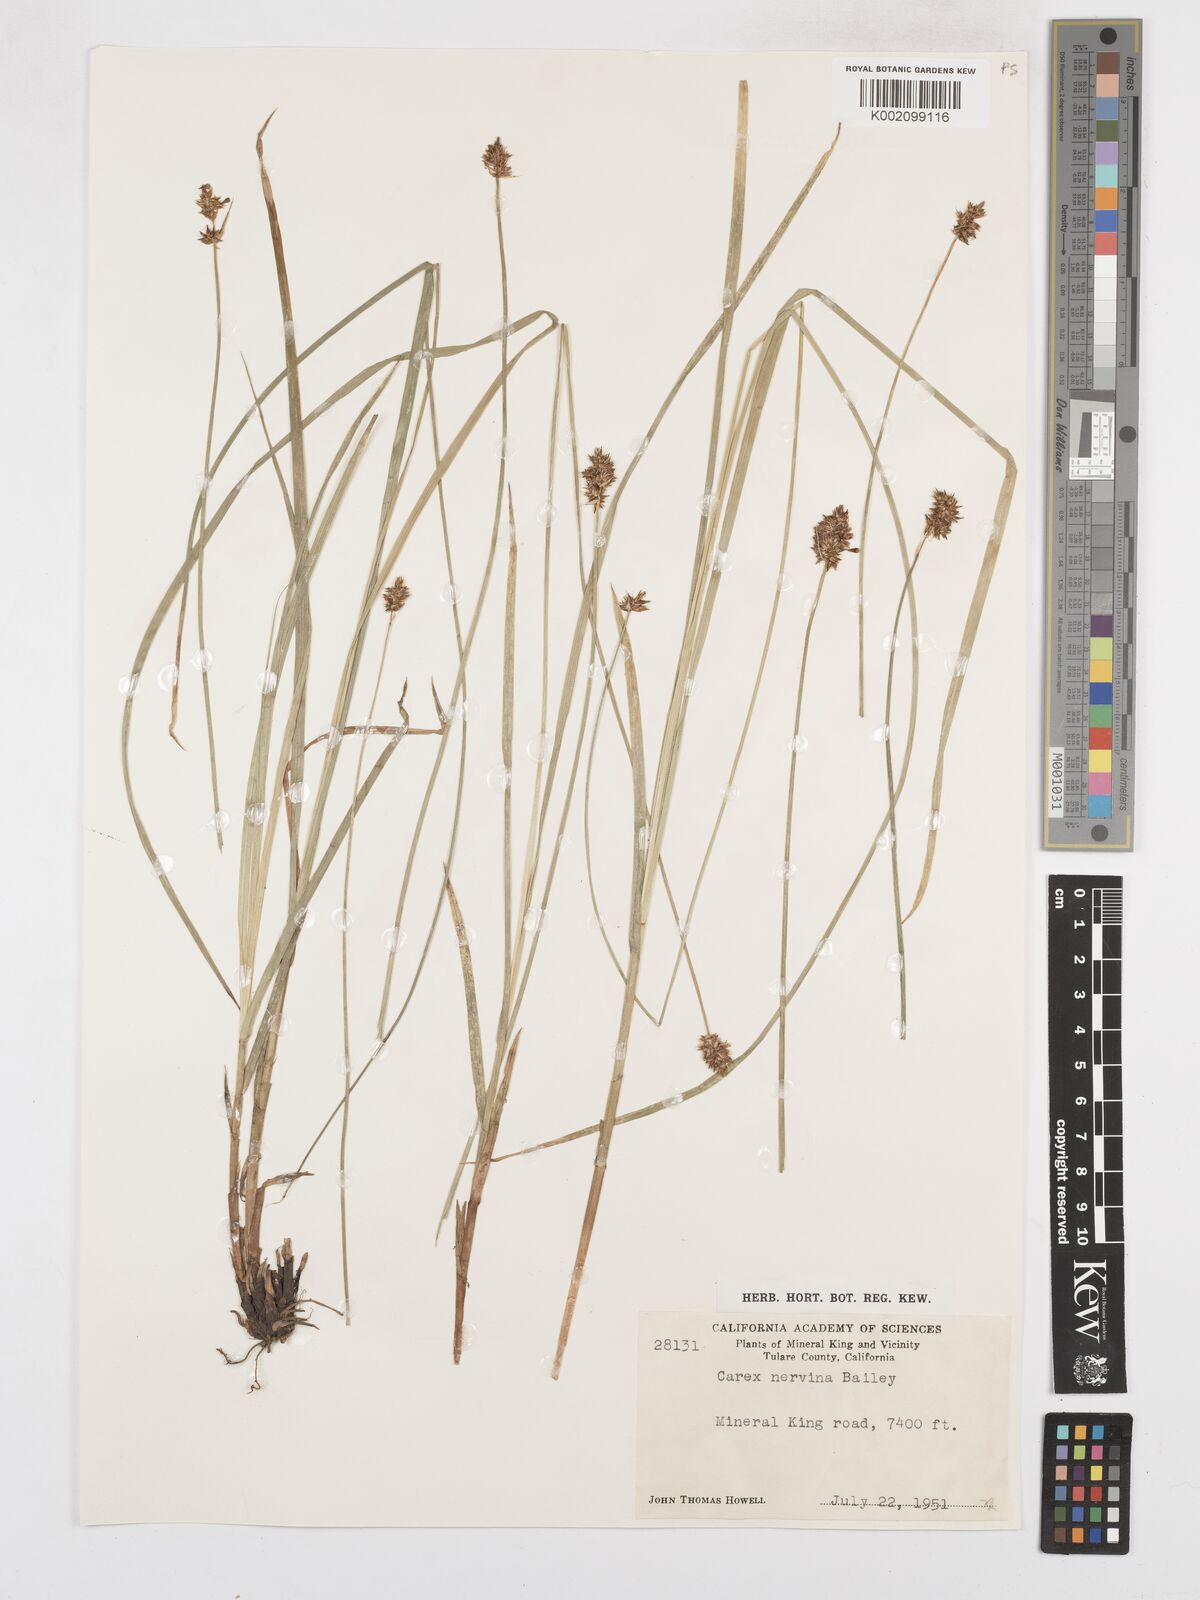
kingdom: Plantae
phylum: Tracheophyta
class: Liliopsida
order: Poales
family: Cyperaceae
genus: Carex
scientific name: Carex nervina
